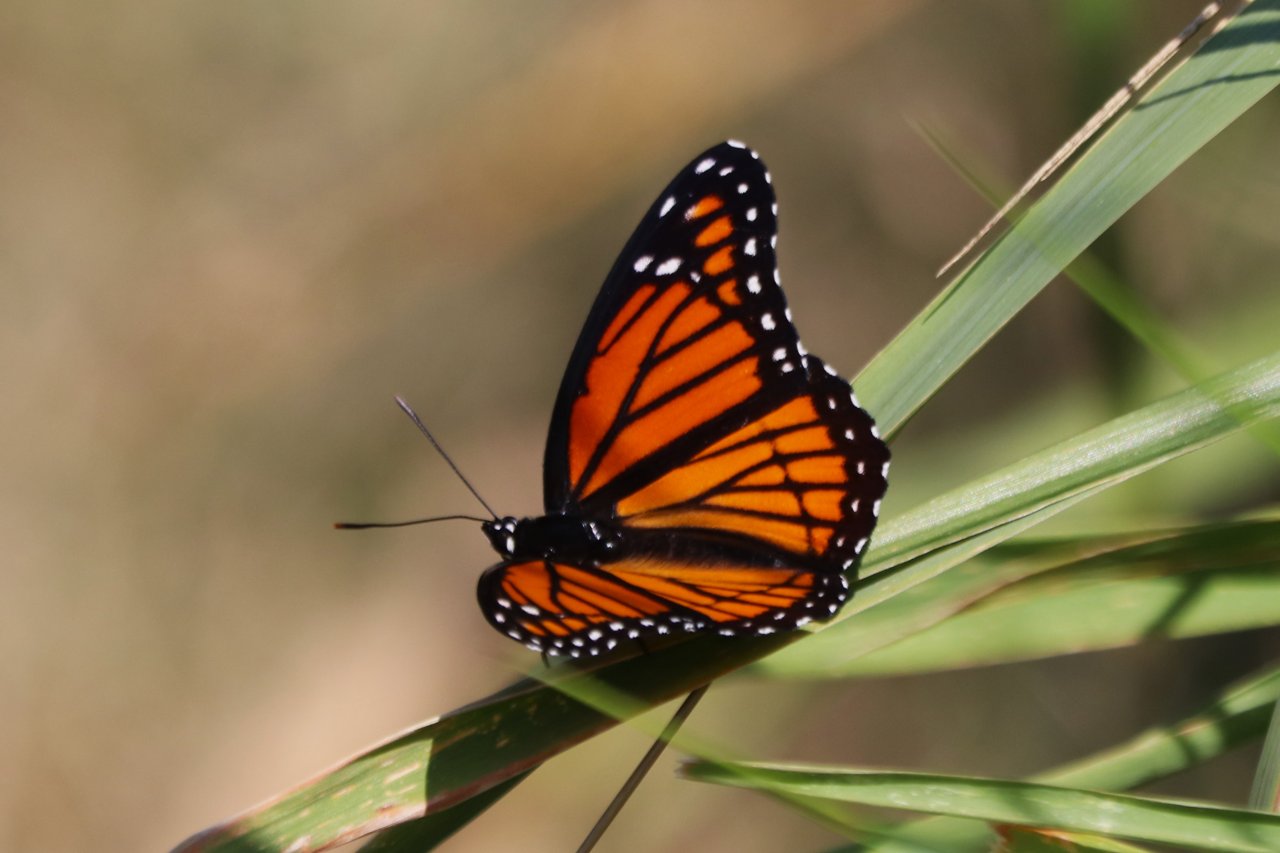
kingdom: Animalia
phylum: Arthropoda
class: Insecta
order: Lepidoptera
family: Nymphalidae
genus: Limenitis
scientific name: Limenitis archippus
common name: Viceroy
